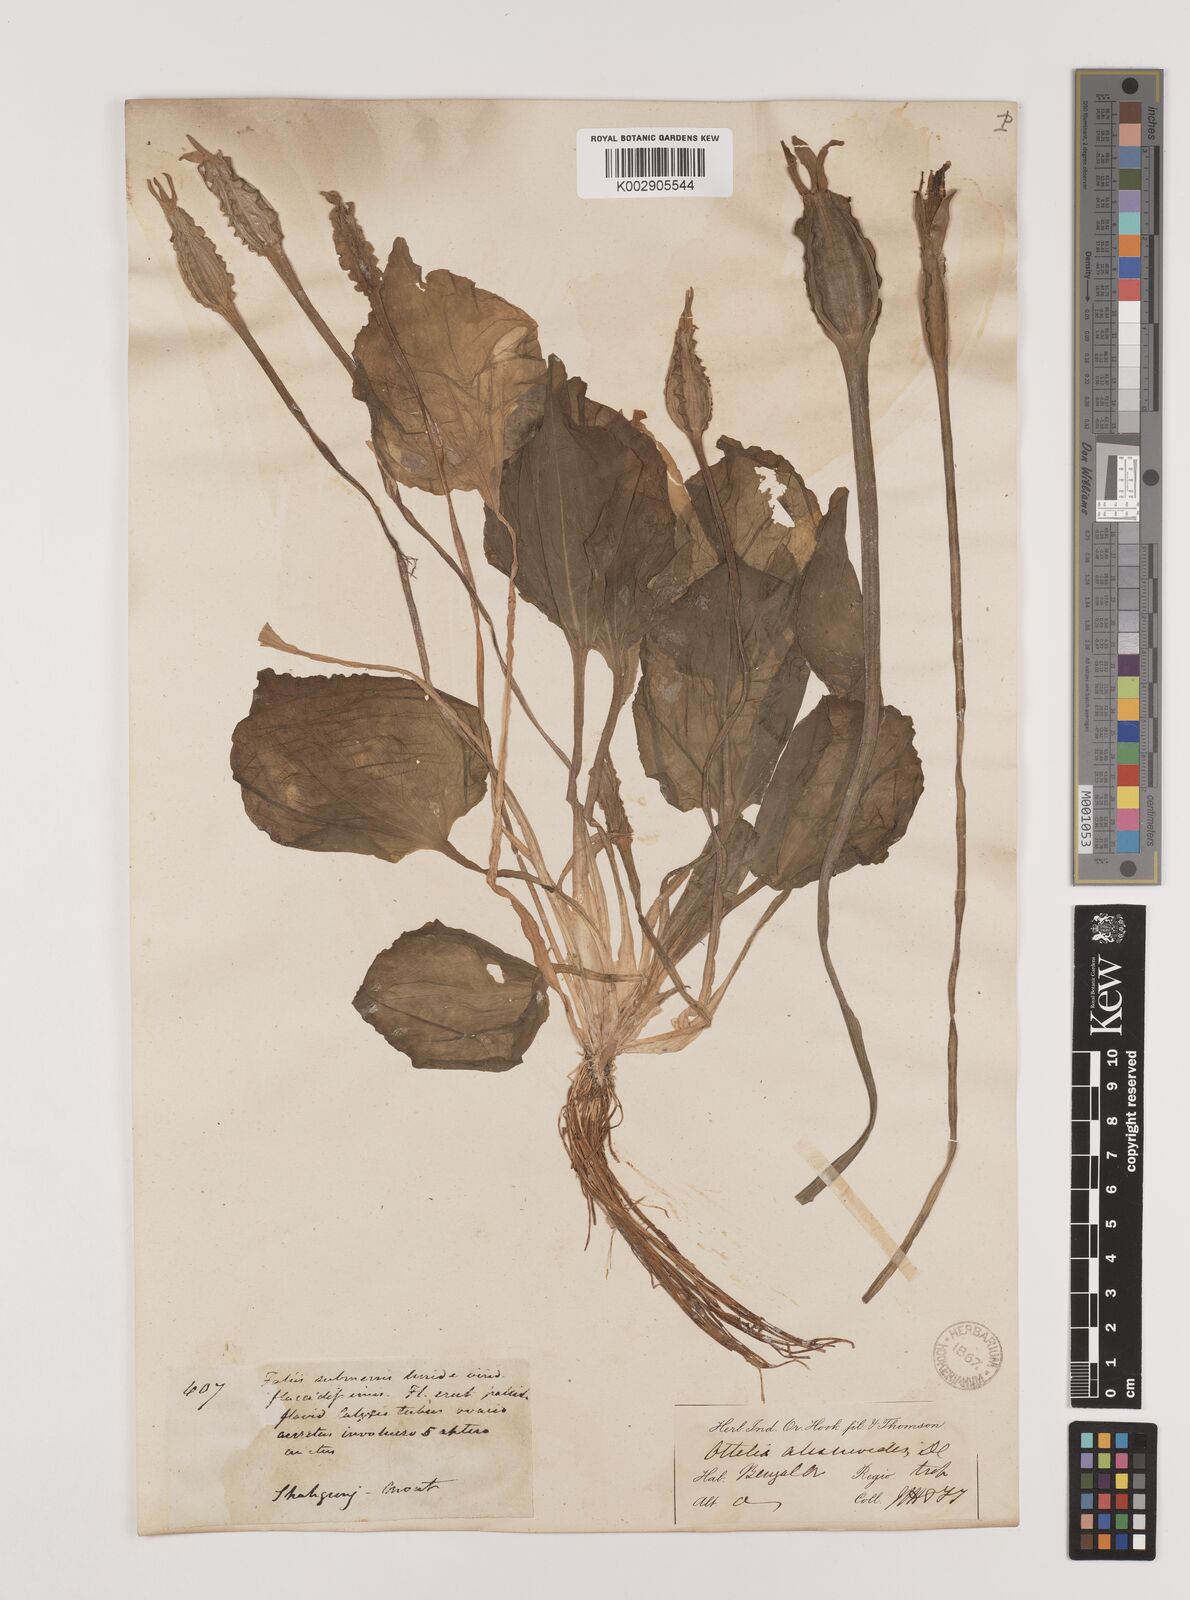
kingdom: Plantae
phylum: Tracheophyta
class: Liliopsida
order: Alismatales
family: Hydrocharitaceae
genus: Ottelia
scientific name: Ottelia alismoides
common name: Duck-lettuce
